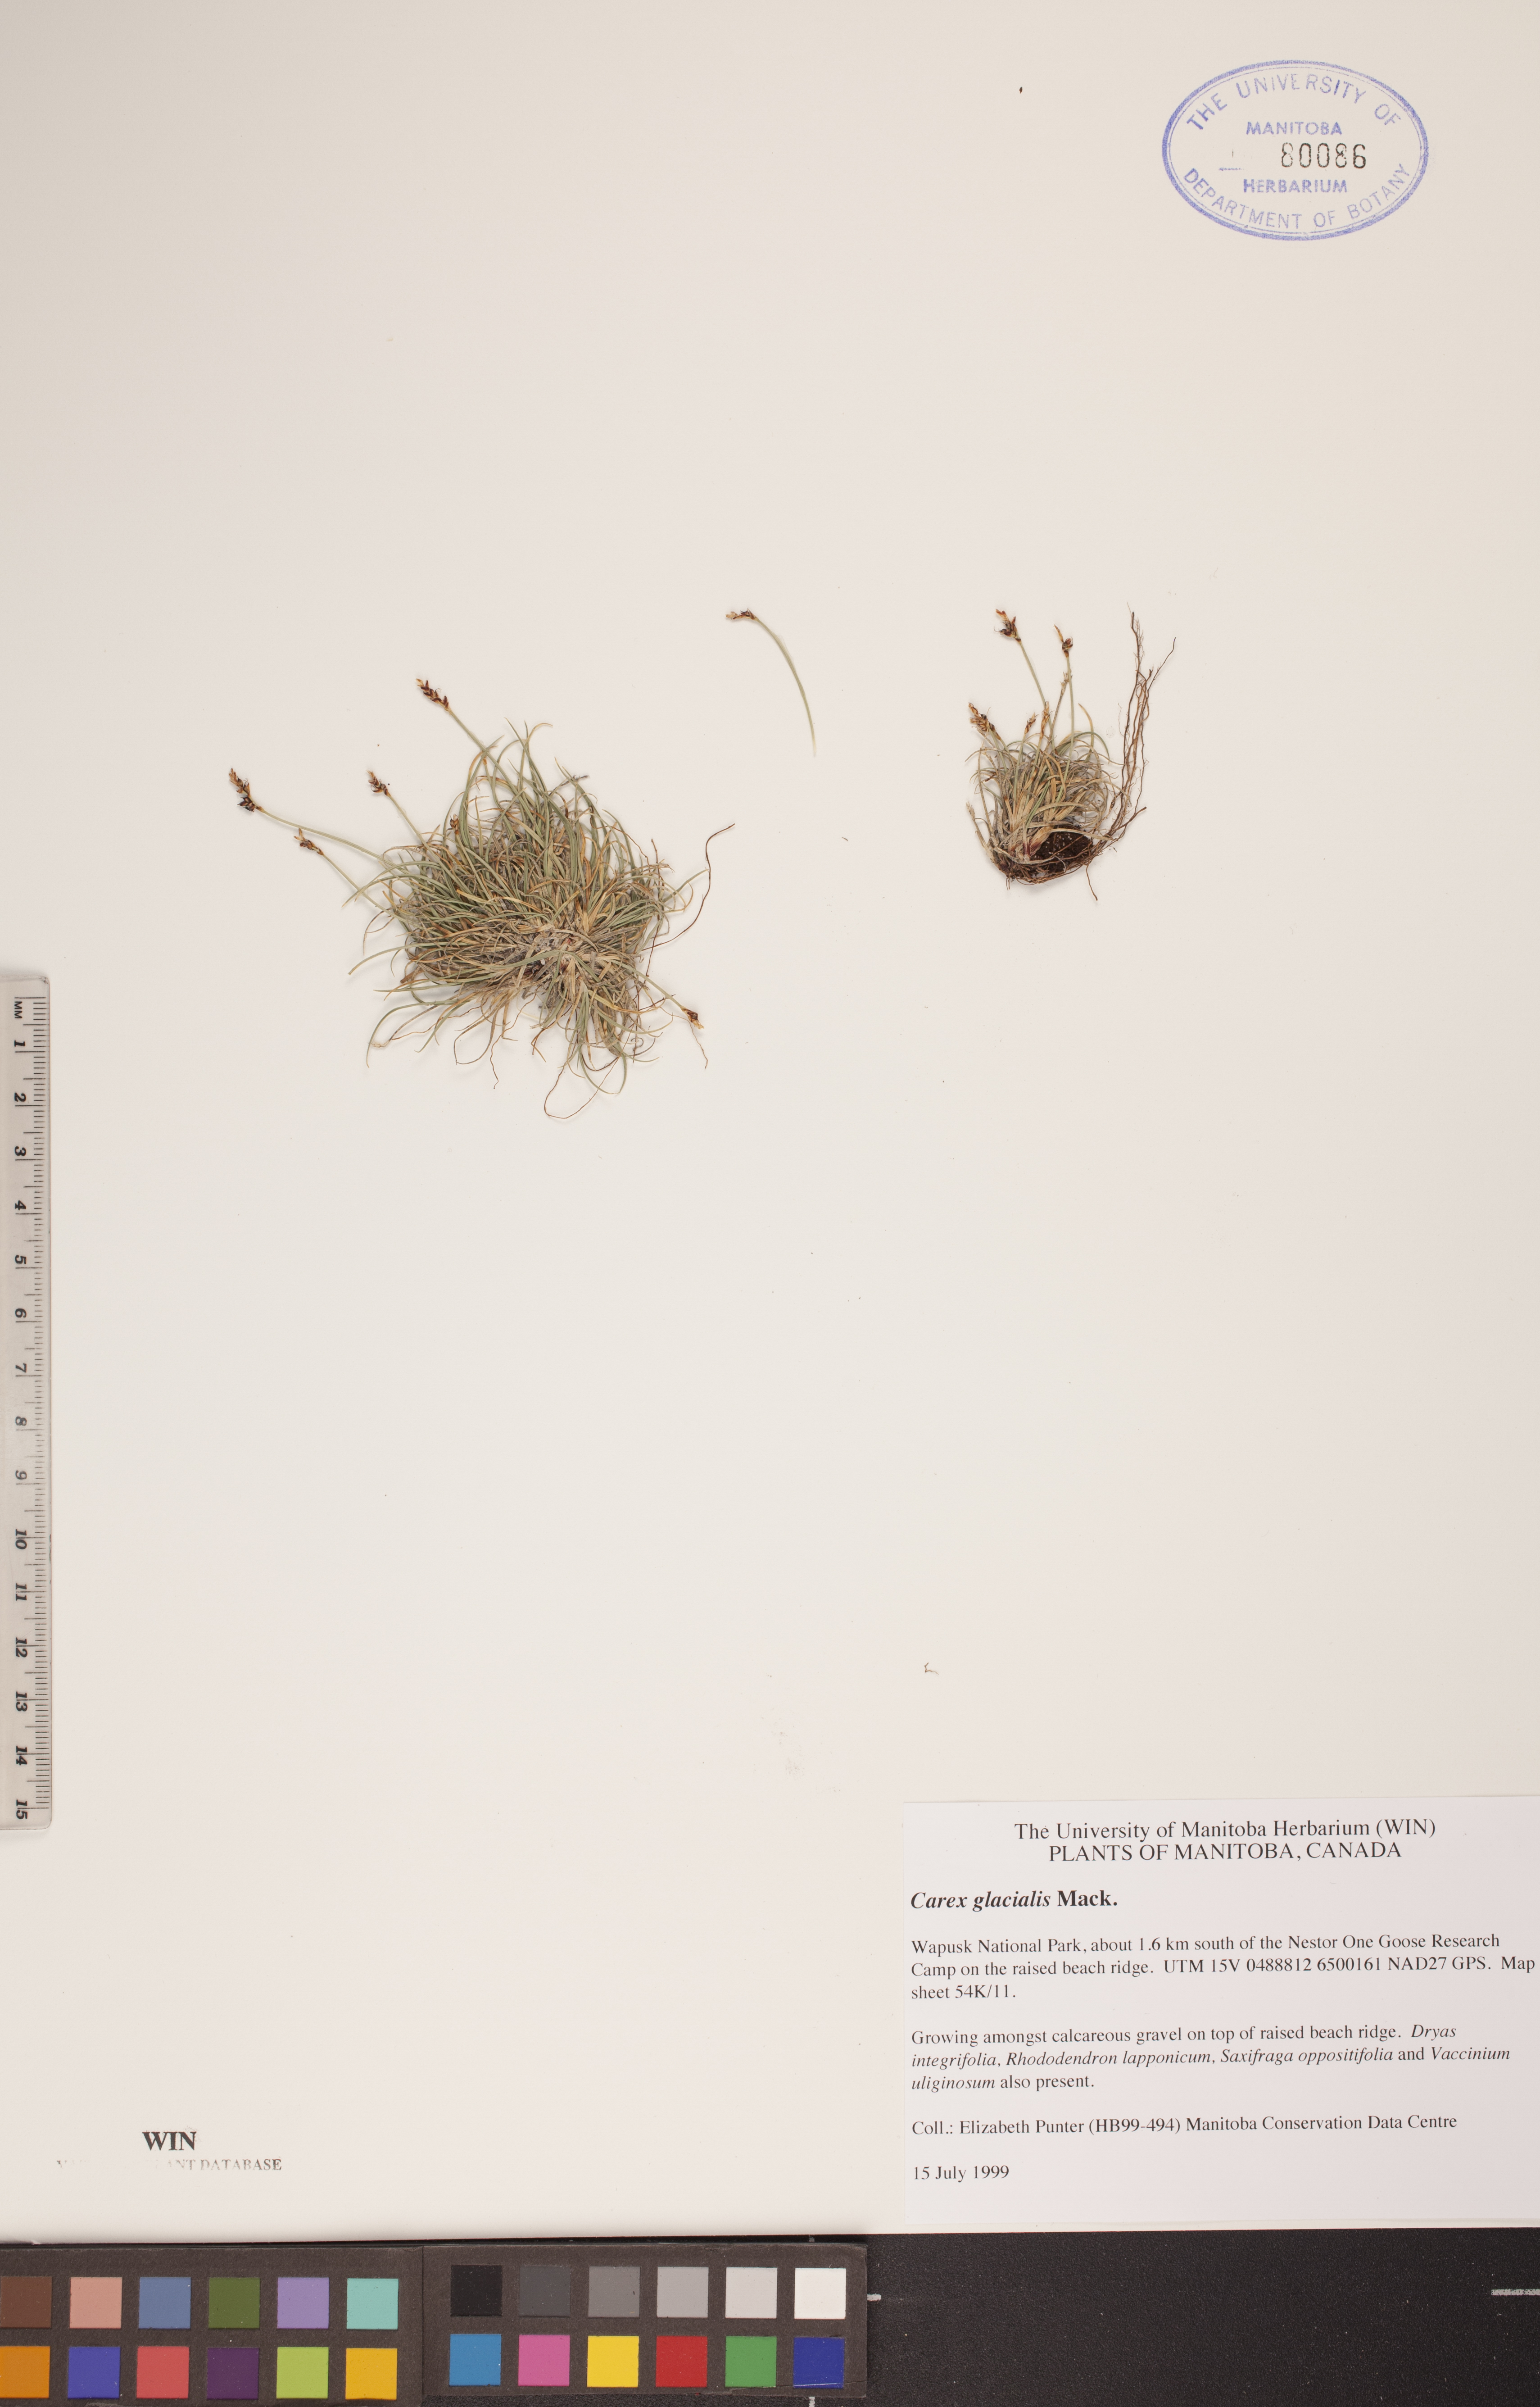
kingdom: Plantae
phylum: Tracheophyta
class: Liliopsida
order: Poales
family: Cyperaceae
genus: Carex
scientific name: Carex glacialis
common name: Newfoundland sedge
